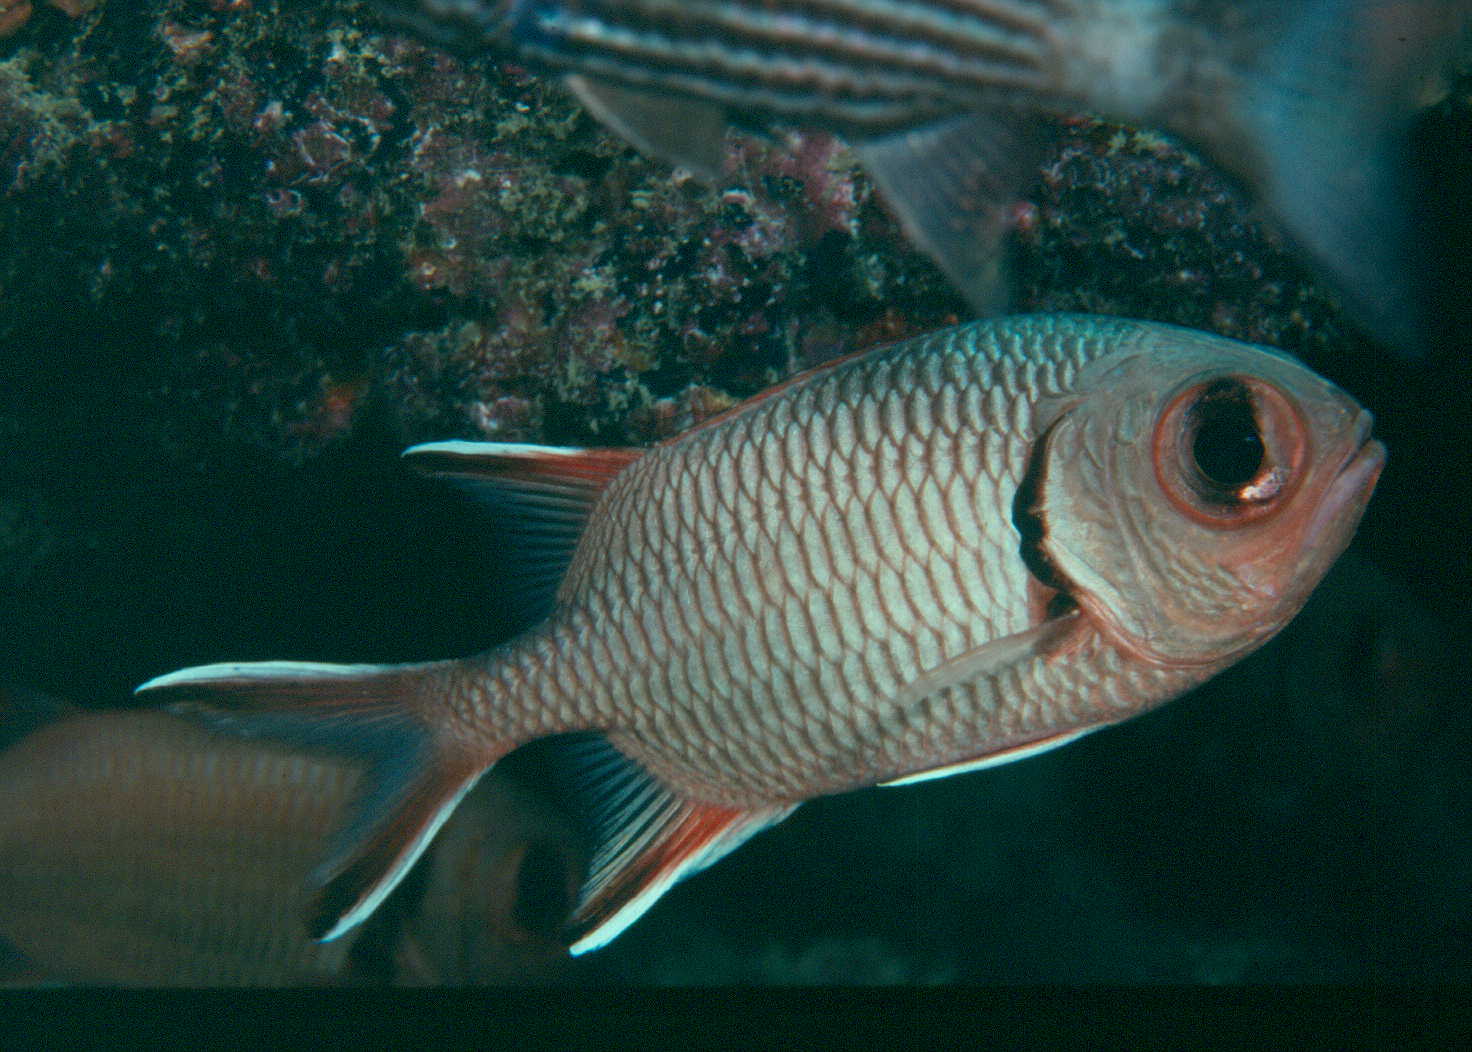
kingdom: Animalia
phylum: Chordata
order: Beryciformes
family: Holocentridae
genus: Myripristis
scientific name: Myripristis seychellensis
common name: Seychelles soldier
